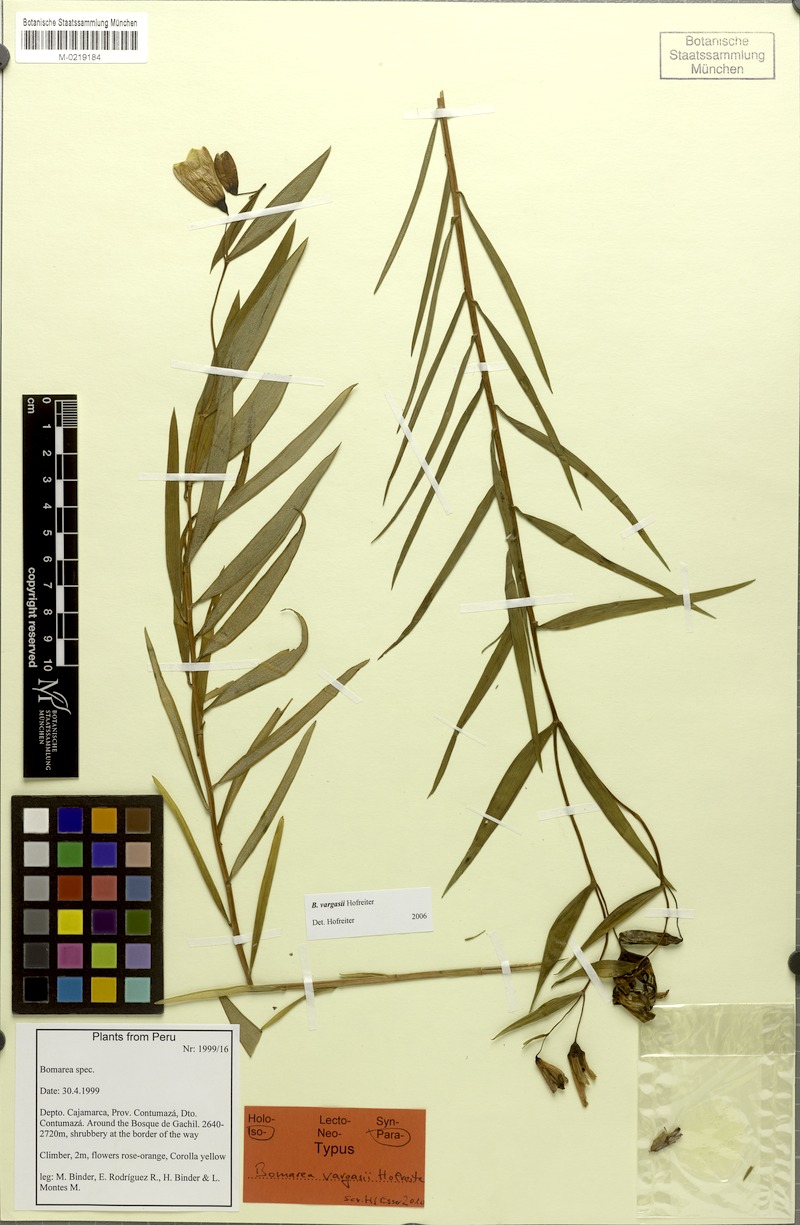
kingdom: Plantae
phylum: Tracheophyta
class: Liliopsida
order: Liliales
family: Alstroemeriaceae
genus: Bomarea
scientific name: Bomarea vargasii
